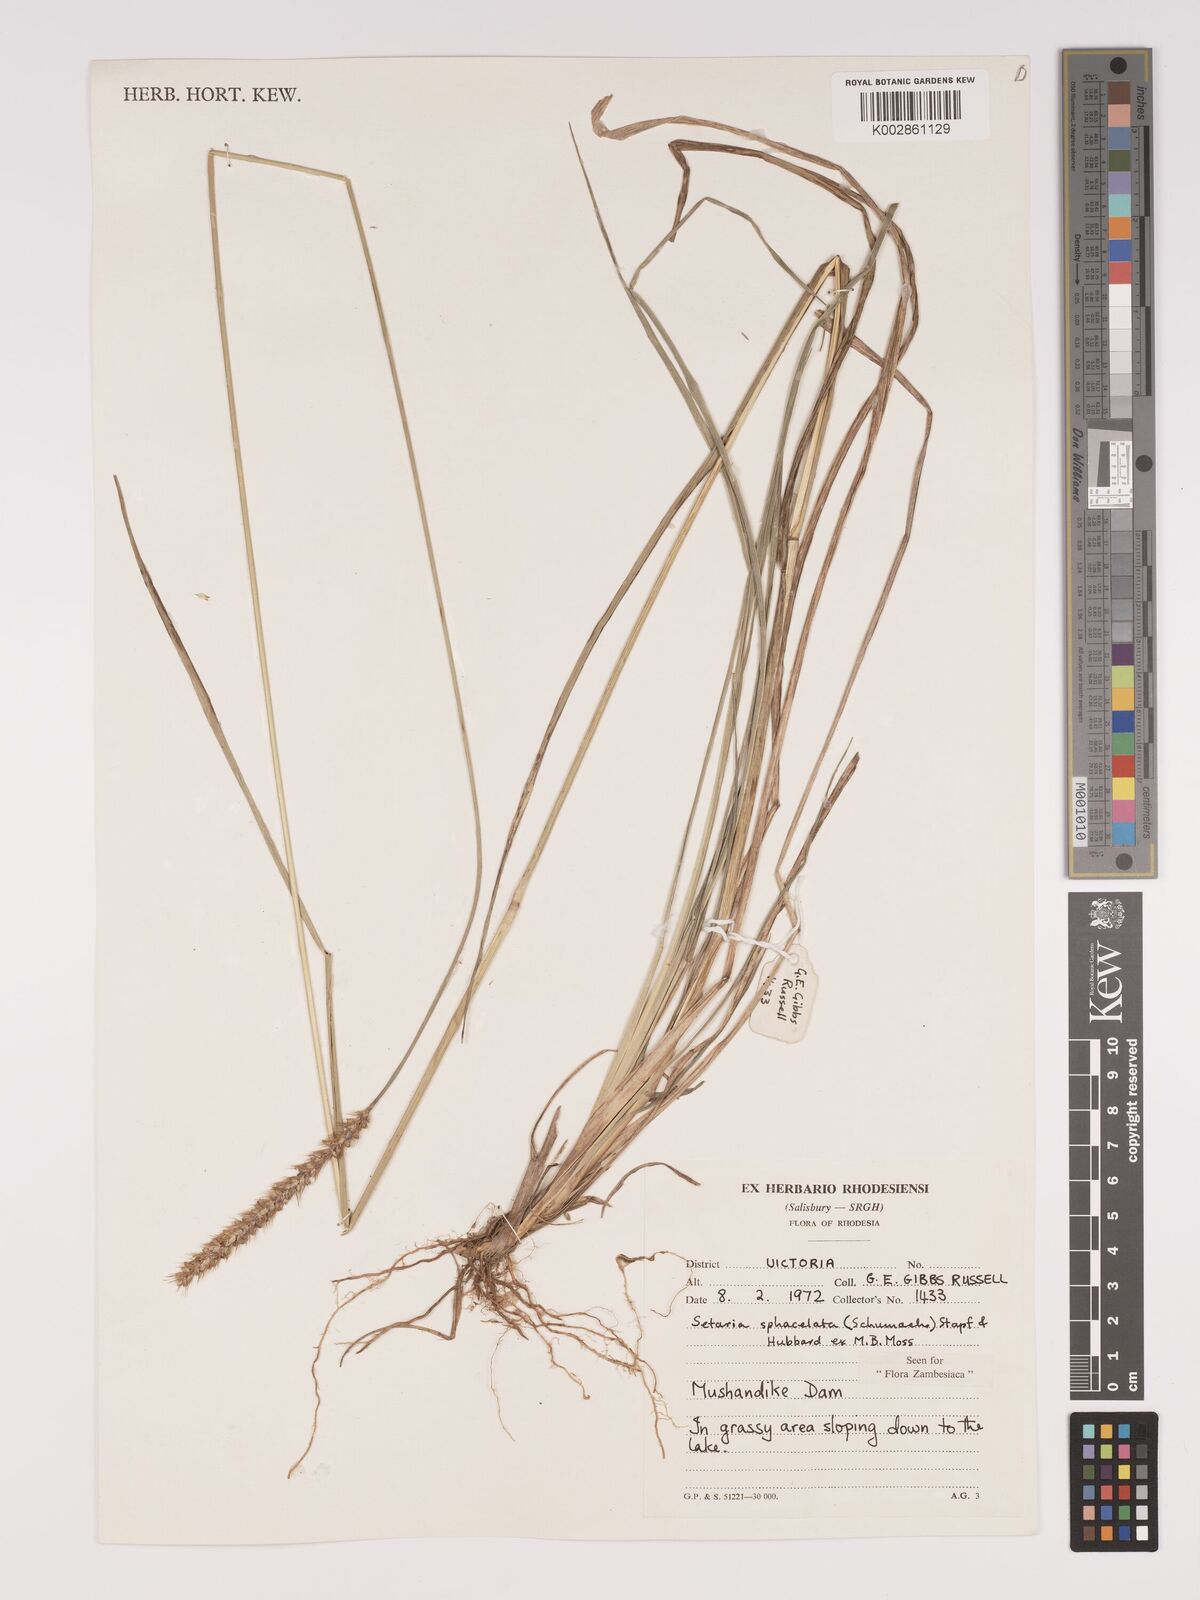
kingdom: Plantae
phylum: Tracheophyta
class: Liliopsida
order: Poales
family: Poaceae
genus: Setaria
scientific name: Setaria sphacelata
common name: African bristlegrass
